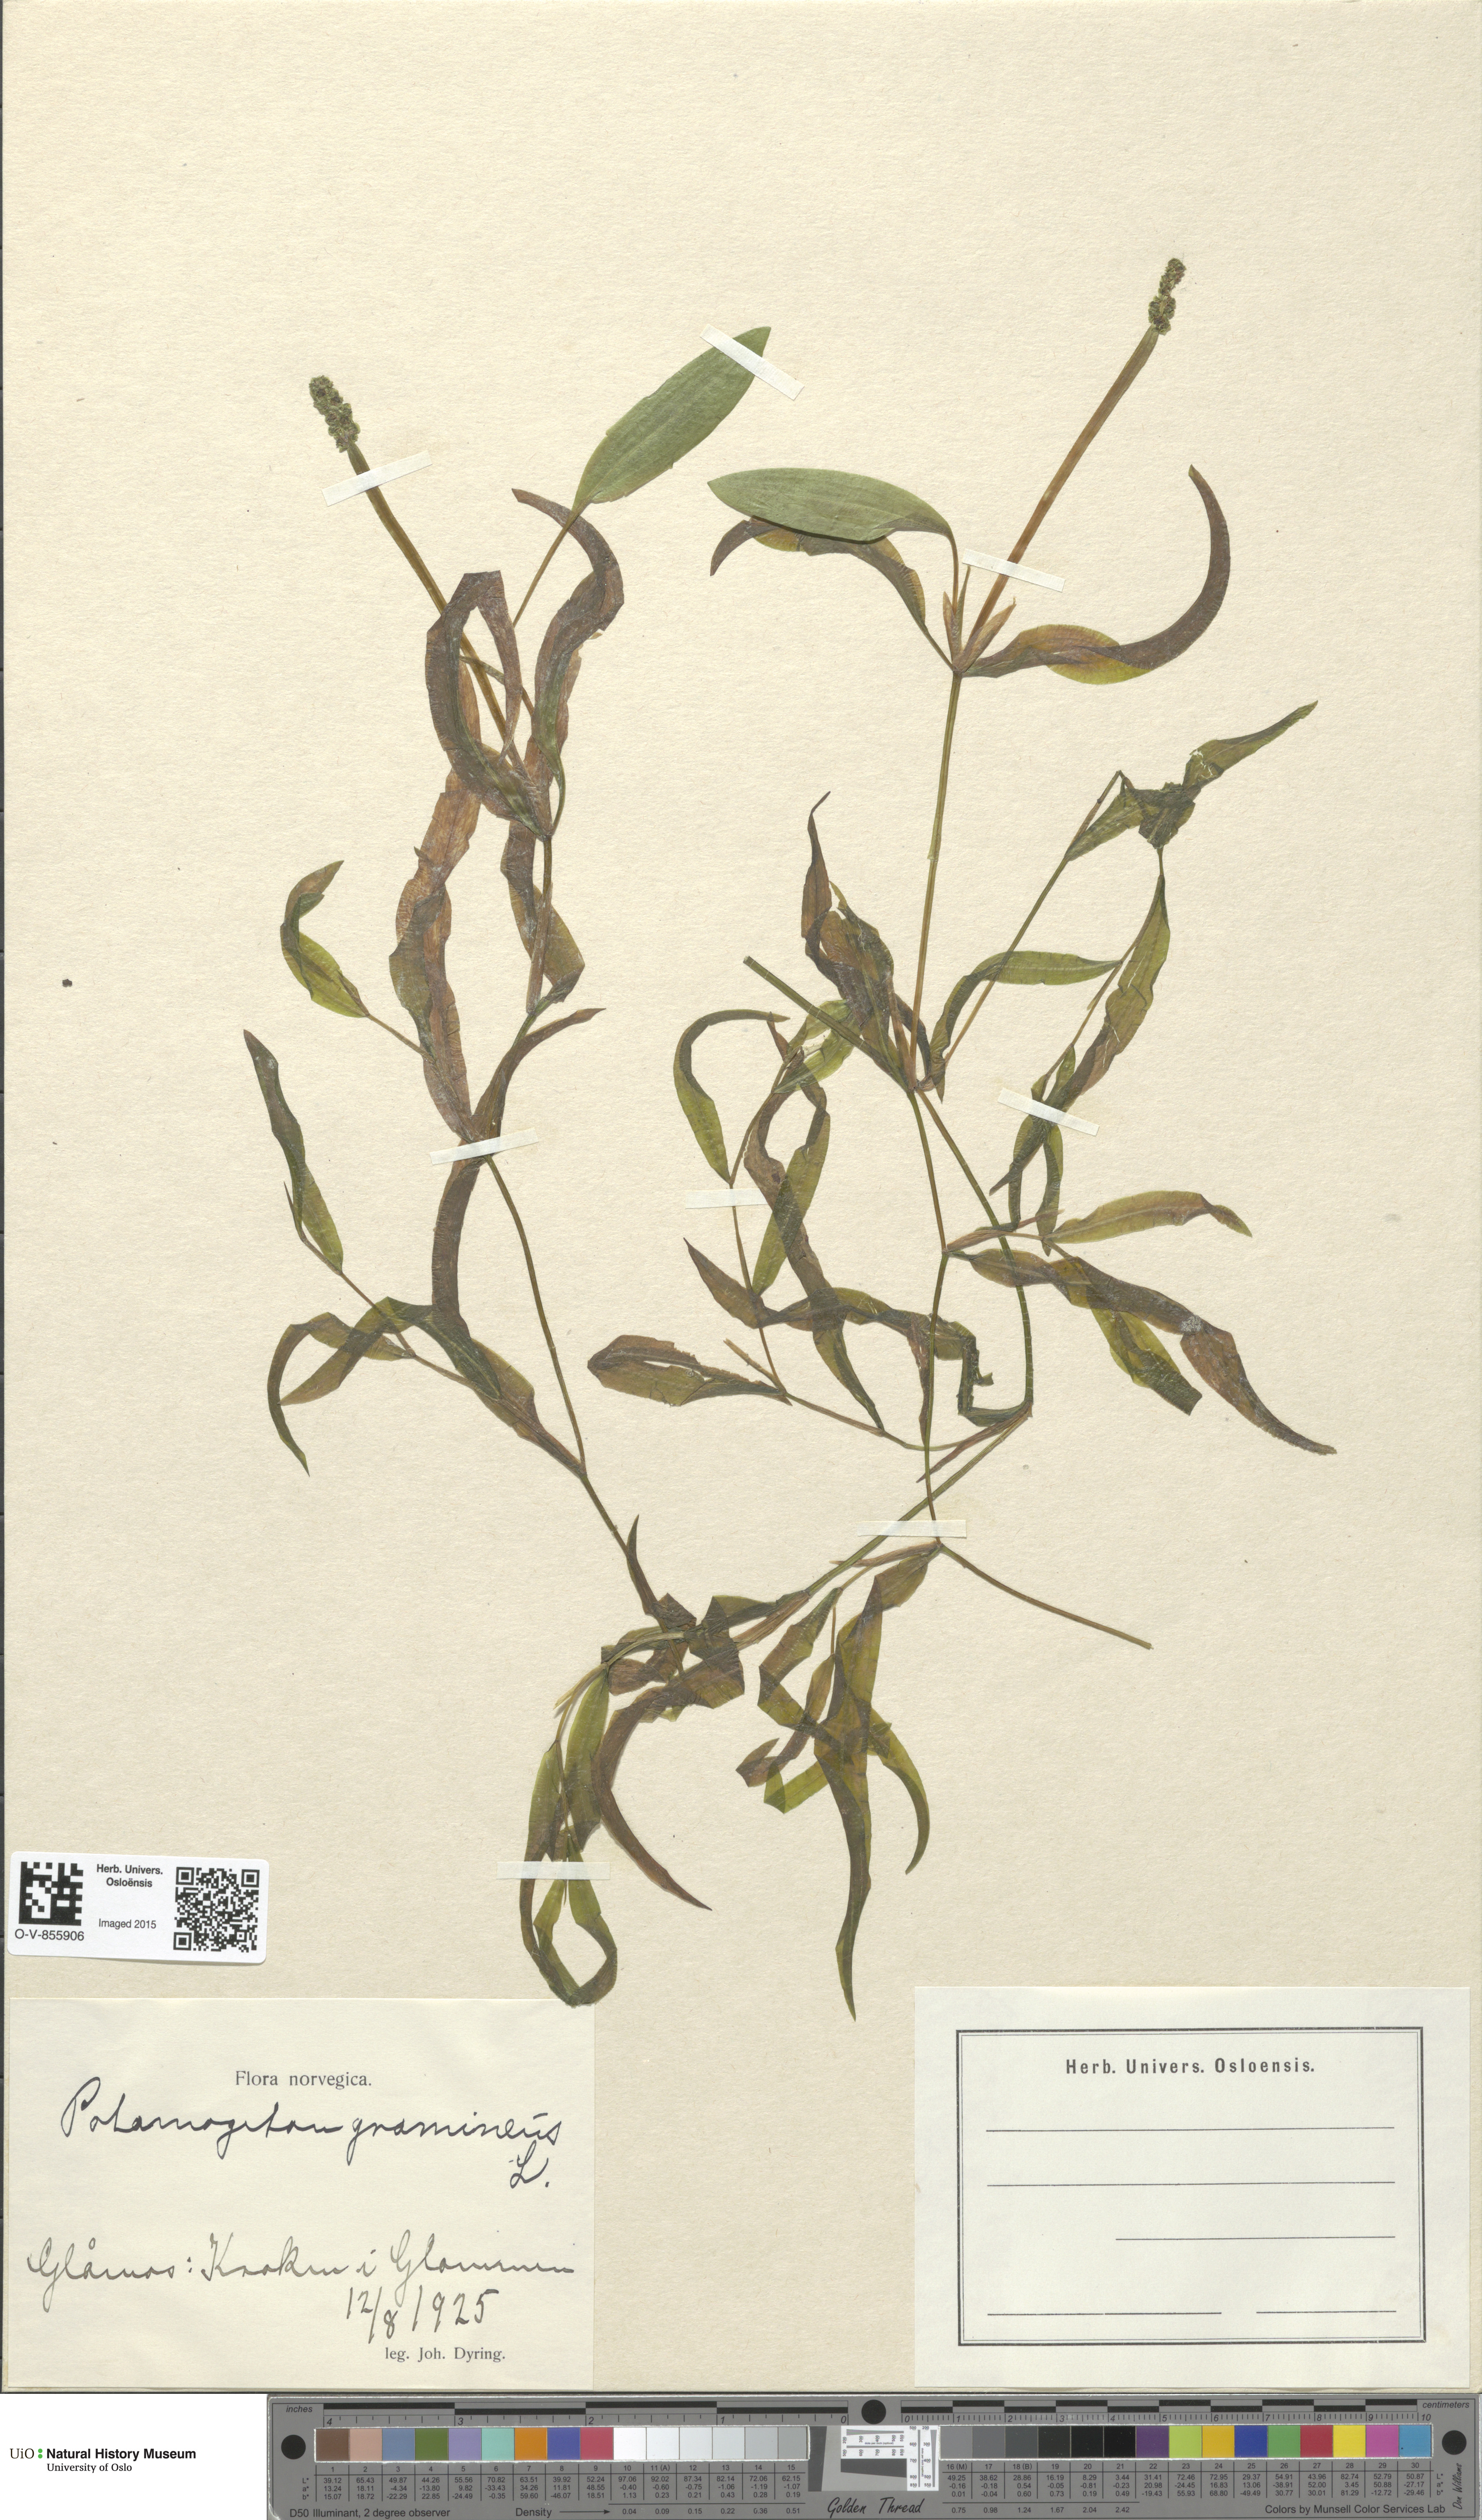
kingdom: Plantae
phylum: Tracheophyta
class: Liliopsida
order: Alismatales
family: Potamogetonaceae
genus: Potamogeton
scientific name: Potamogeton gramineus
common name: Various-leaved pondweed
